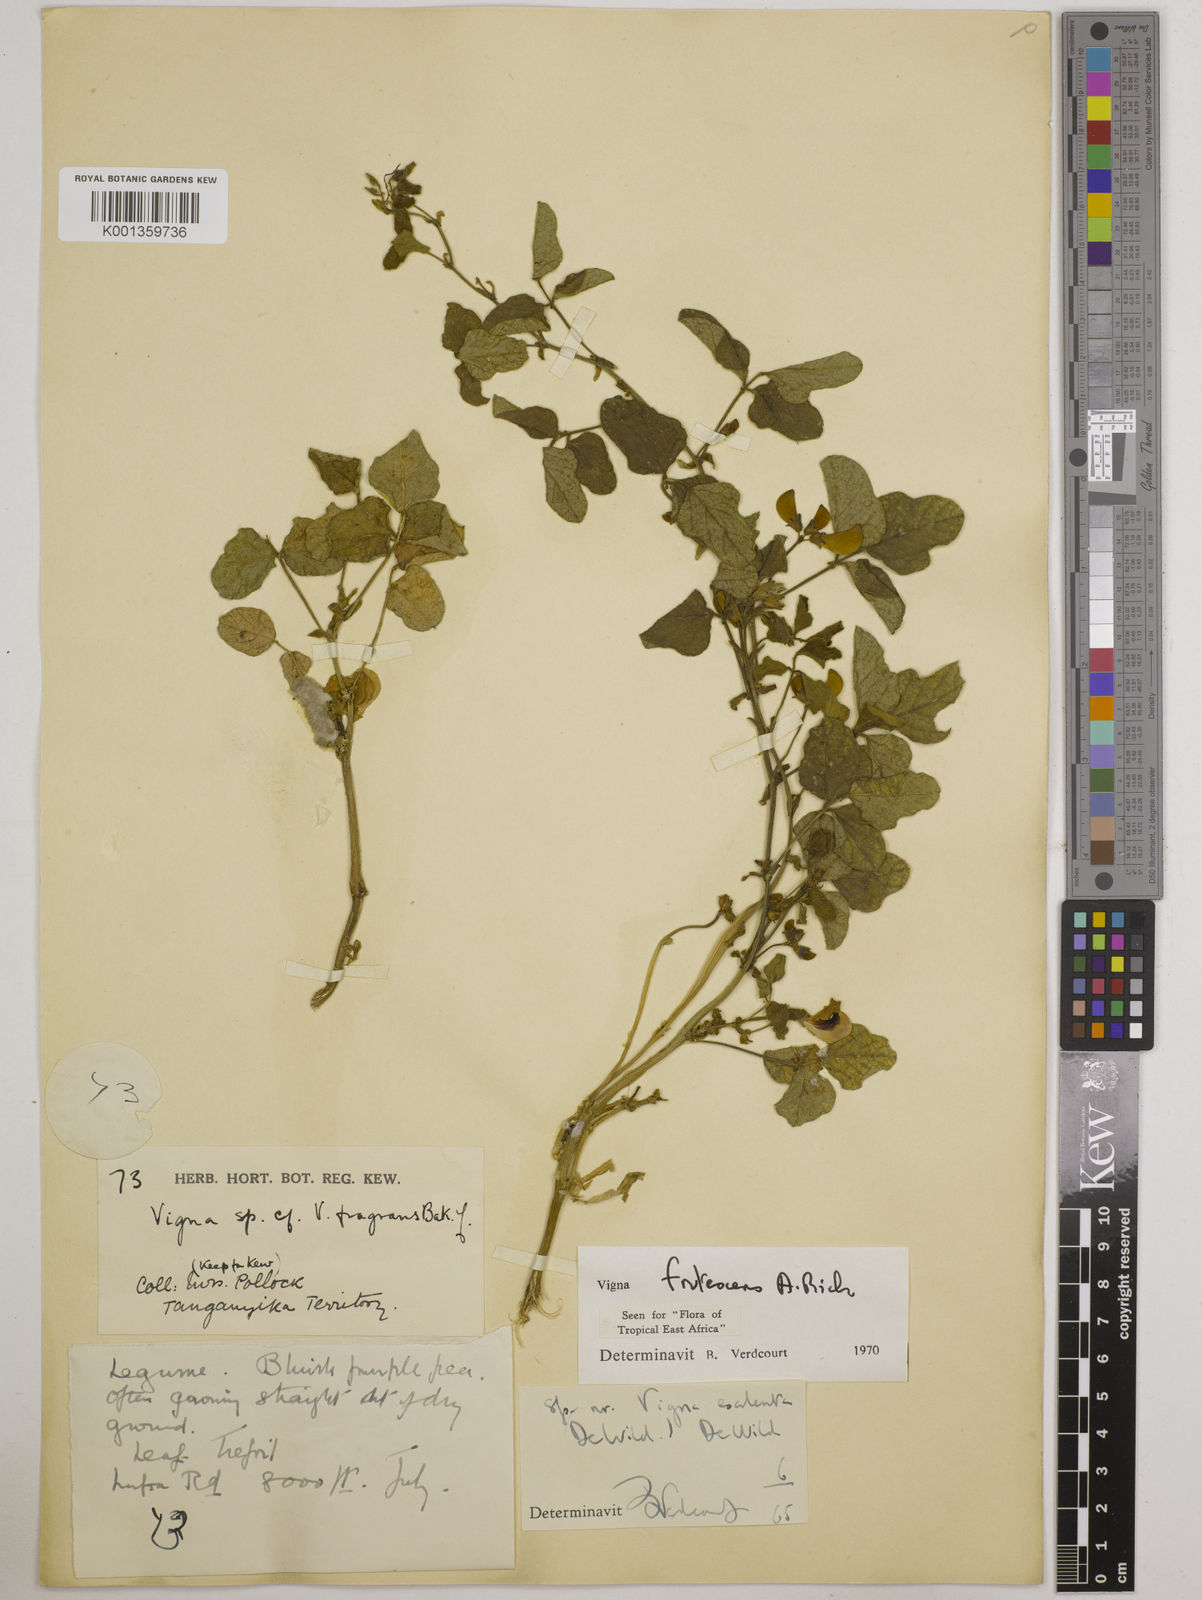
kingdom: Plantae
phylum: Tracheophyta
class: Magnoliopsida
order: Fabales
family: Fabaceae
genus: Vigna
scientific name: Vigna frutescens
